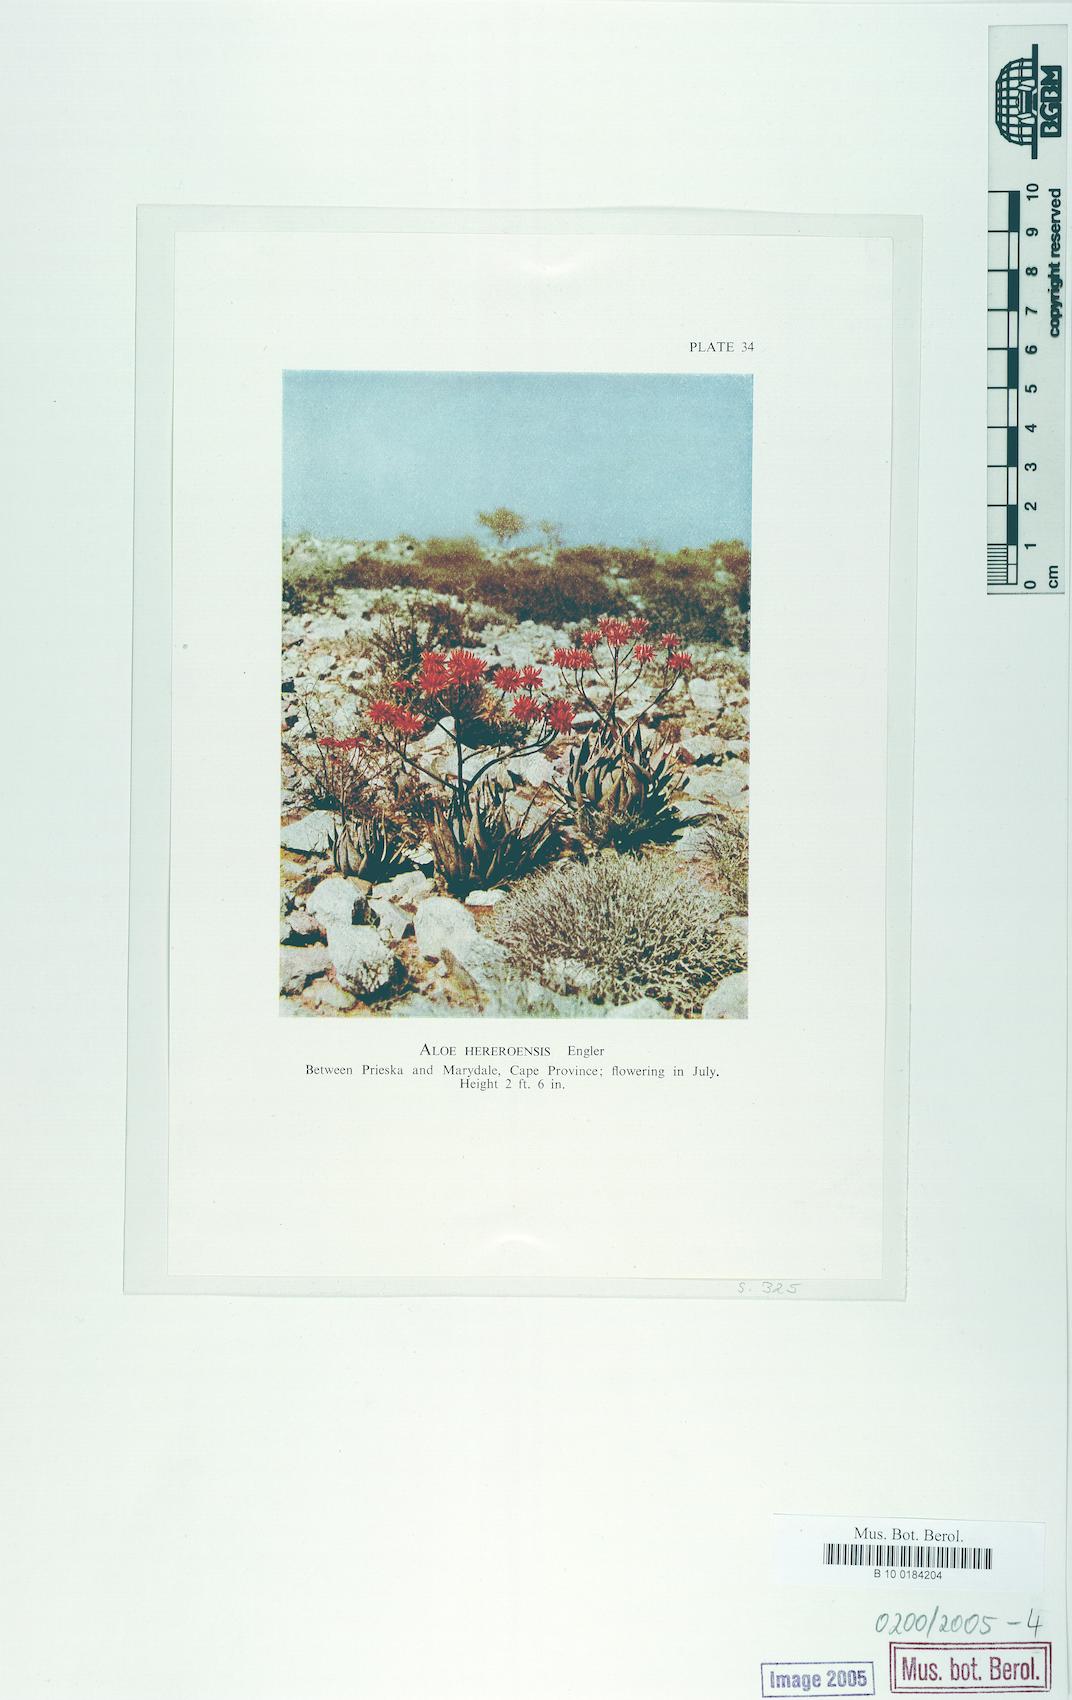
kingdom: Plantae
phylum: Tracheophyta
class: Liliopsida
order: Asparagales
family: Asphodelaceae
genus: Aloe
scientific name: Aloe hereroensis
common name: Herero aloe
